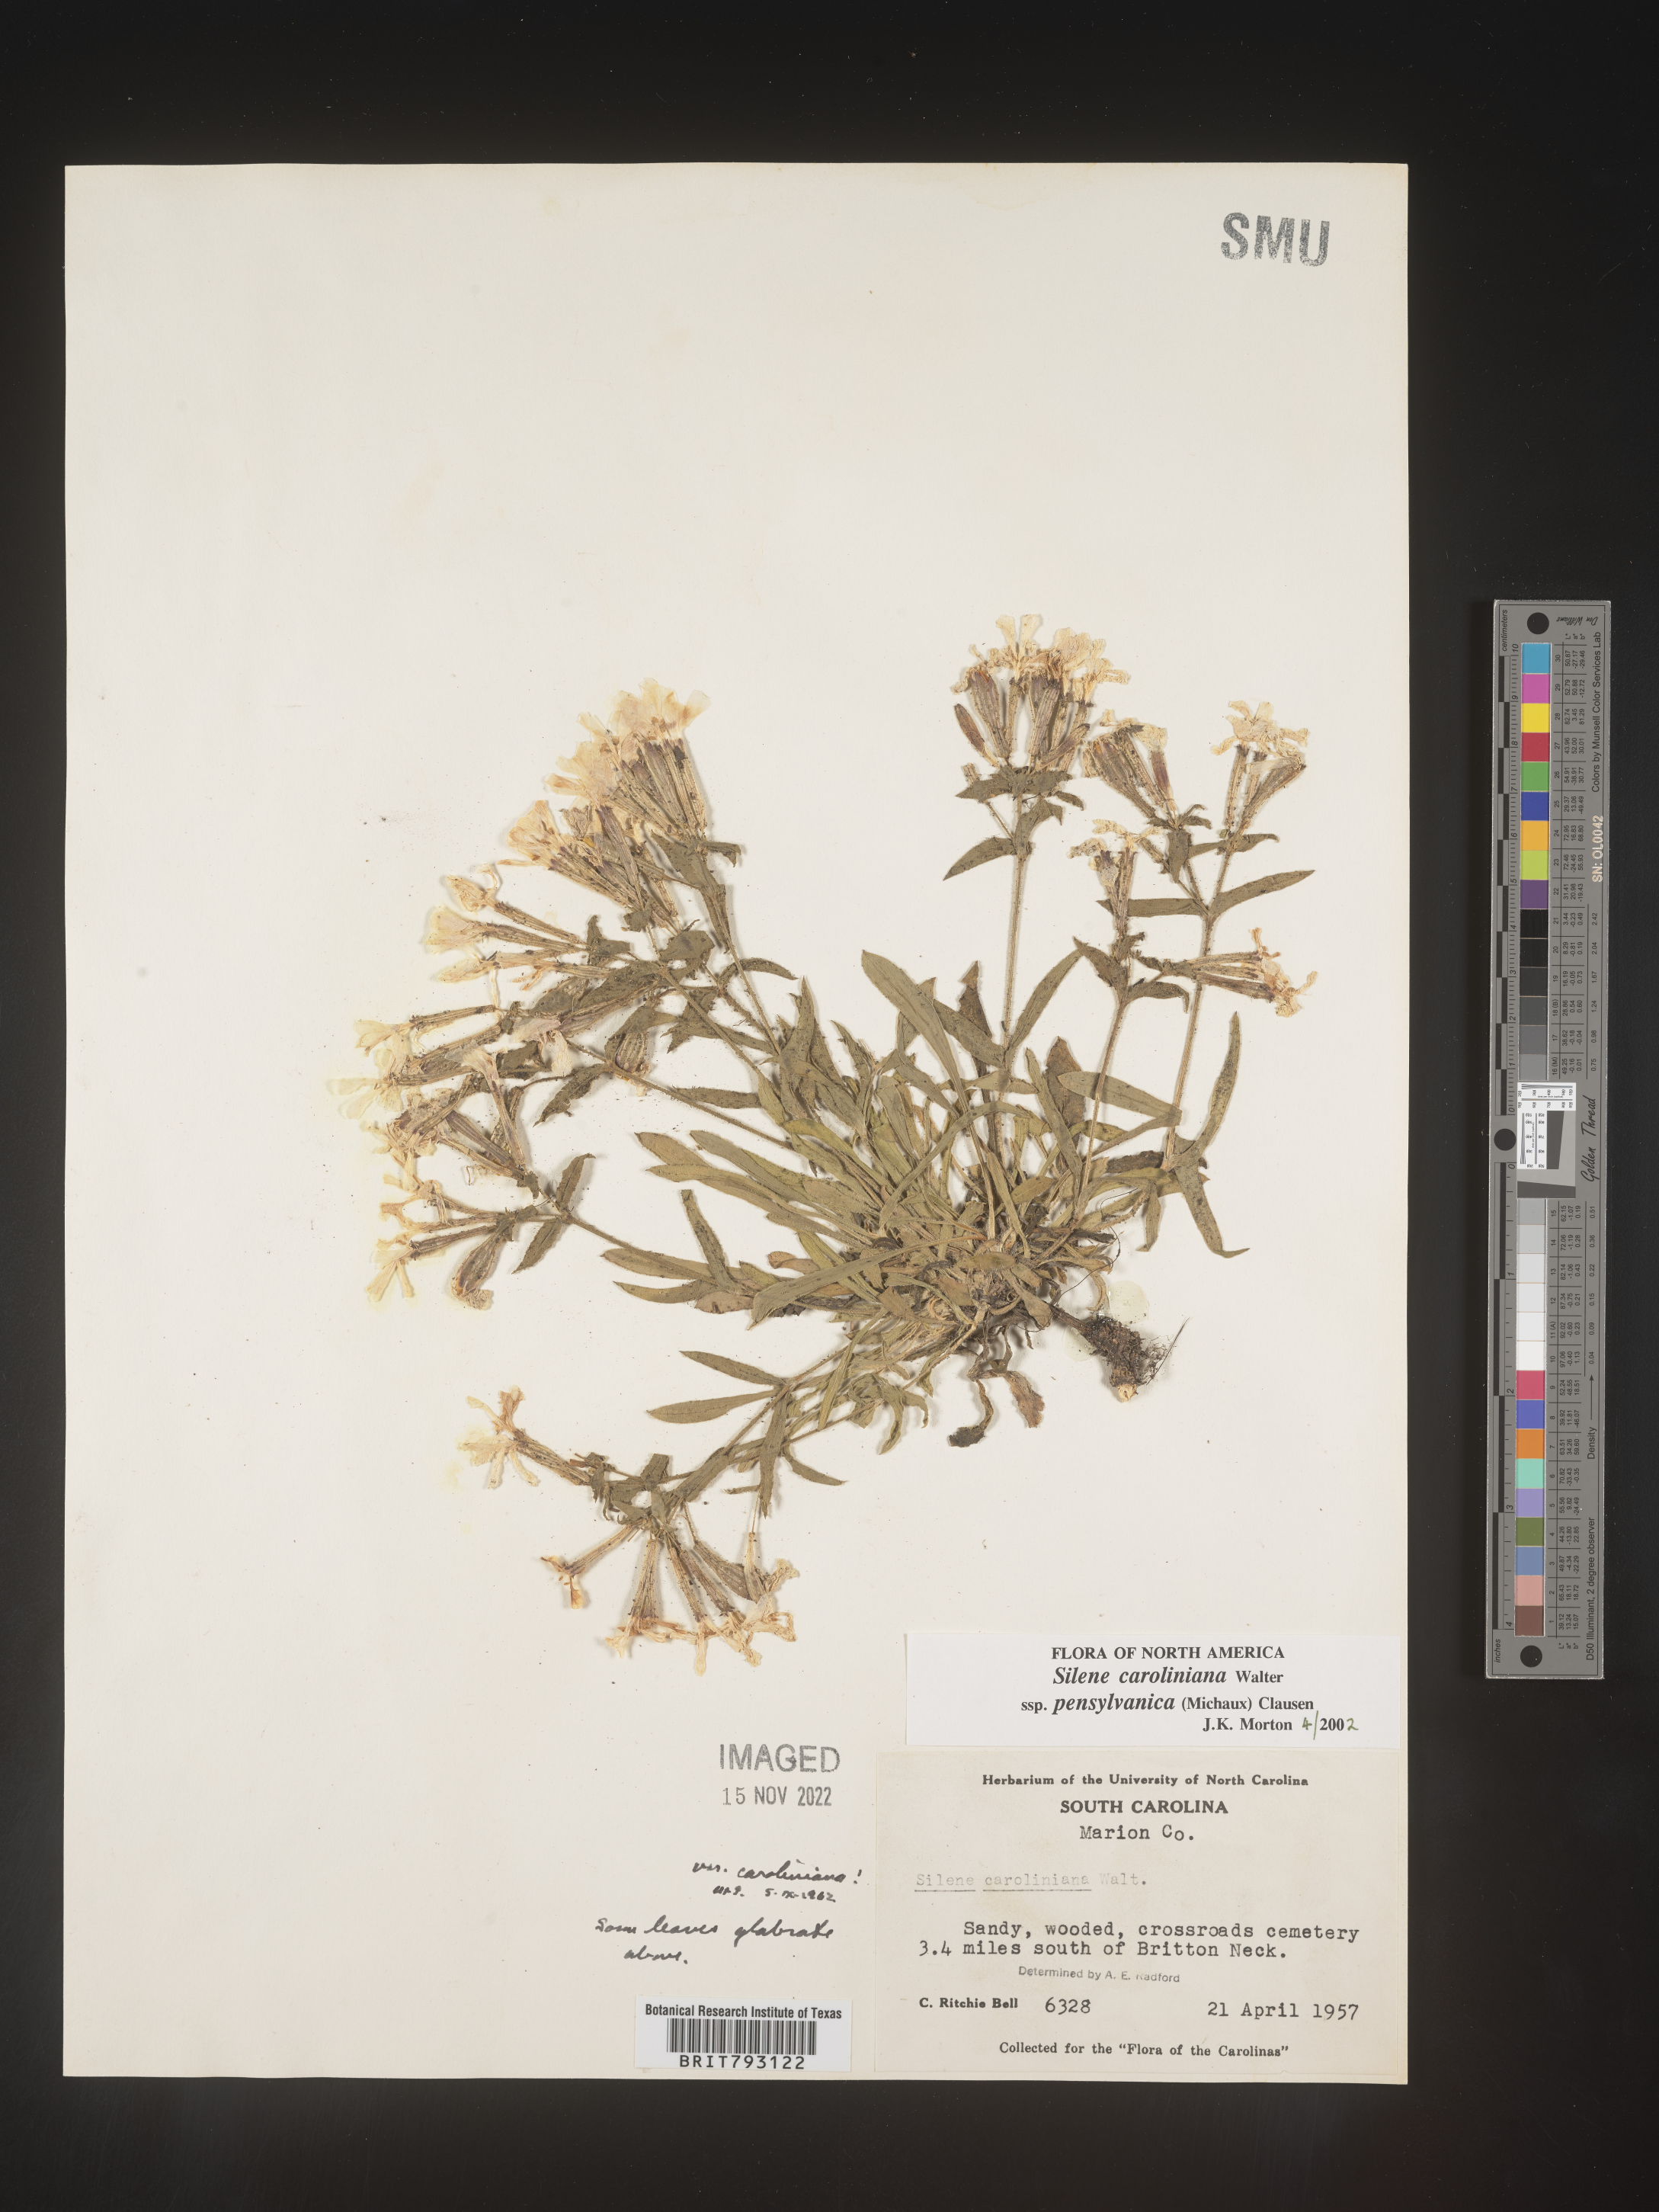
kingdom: Plantae
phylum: Tracheophyta
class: Magnoliopsida
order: Caryophyllales
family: Caryophyllaceae
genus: Silene
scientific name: Silene caroliniana
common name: Sticky catchfly
